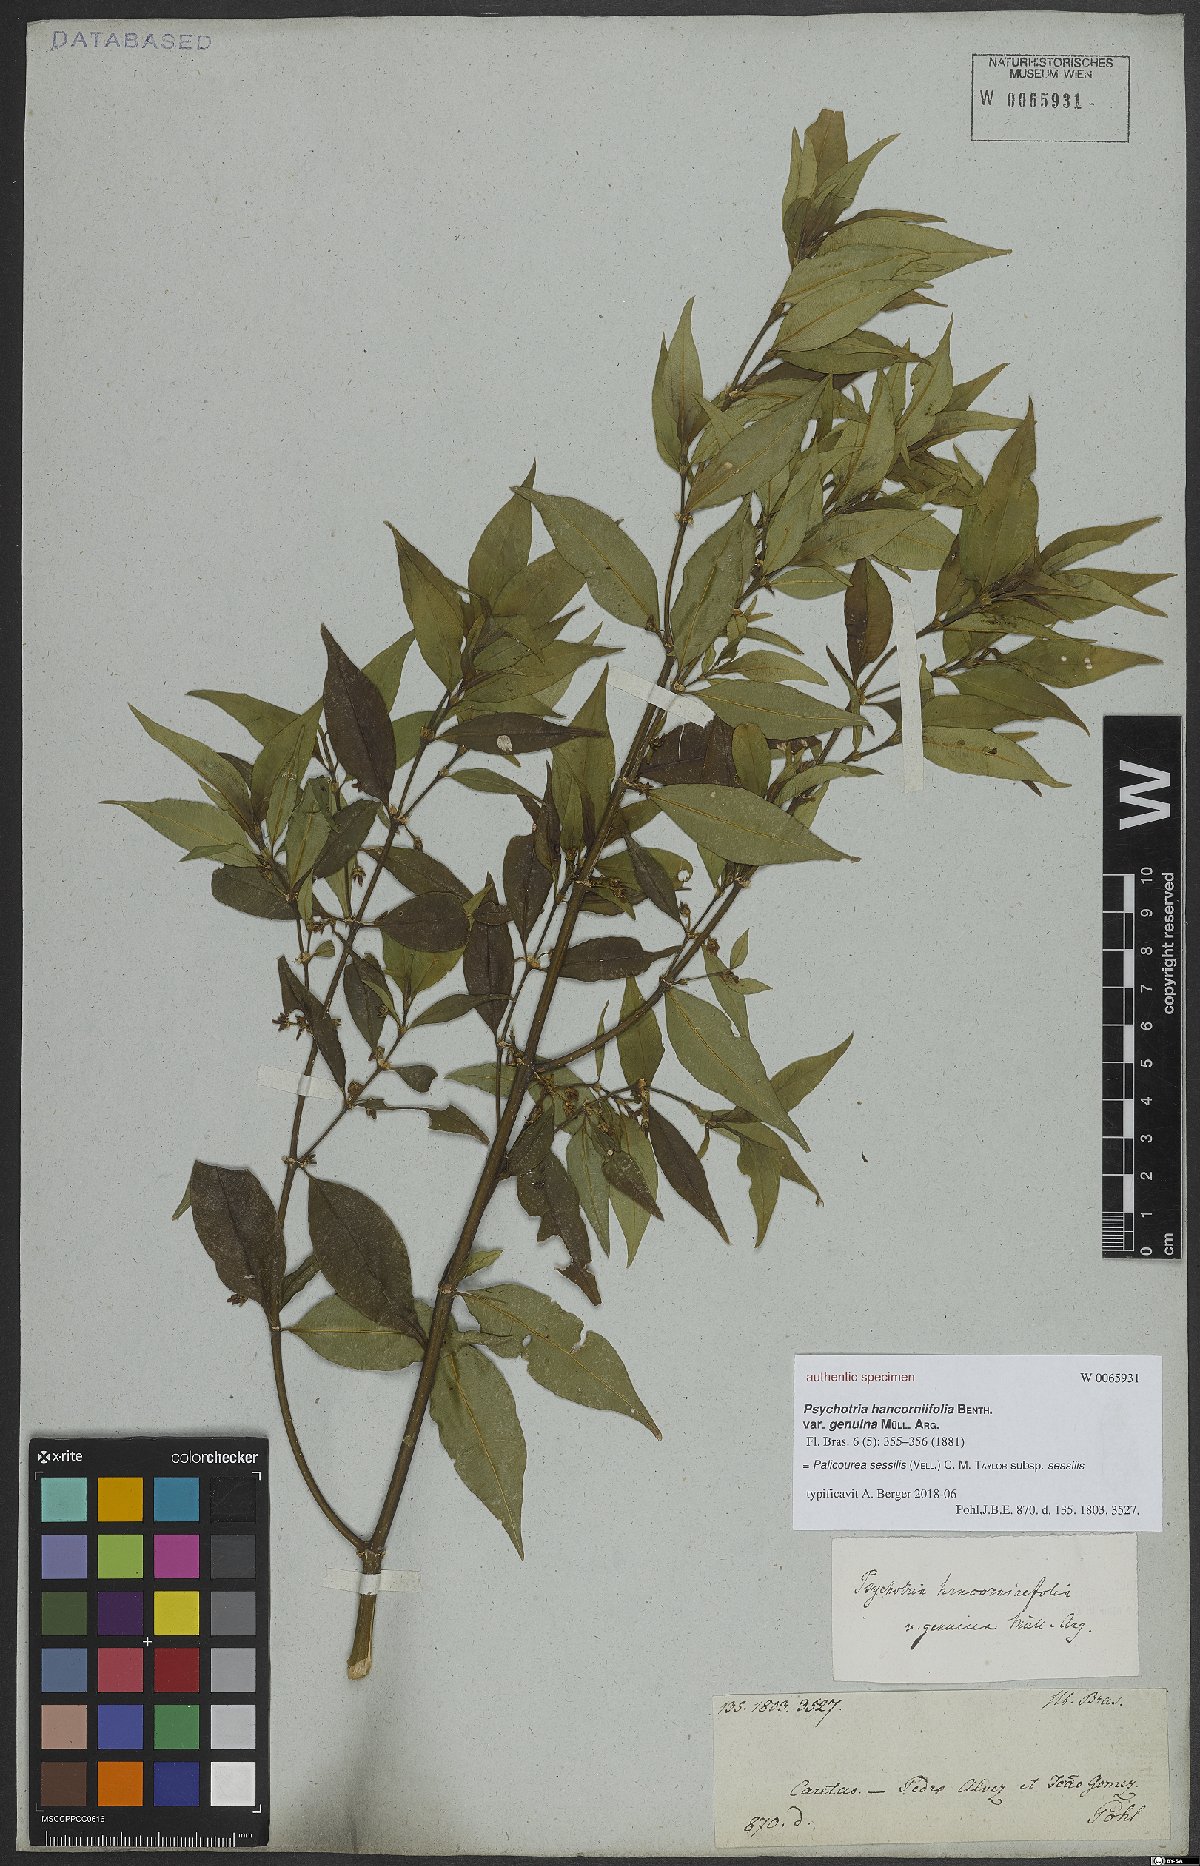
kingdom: Plantae
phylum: Tracheophyta
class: Magnoliopsida
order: Gentianales
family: Rubiaceae
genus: Palicourea
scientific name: Palicourea sessilis
